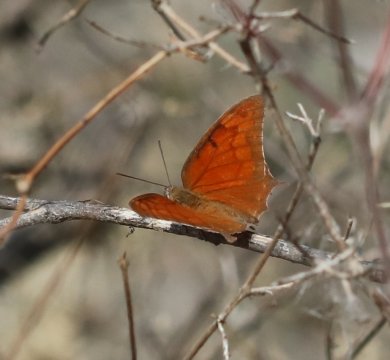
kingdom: Animalia
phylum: Arthropoda
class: Insecta
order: Lepidoptera
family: Nymphalidae
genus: Anaea
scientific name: Anaea aidea
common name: Tropical Leafwing
